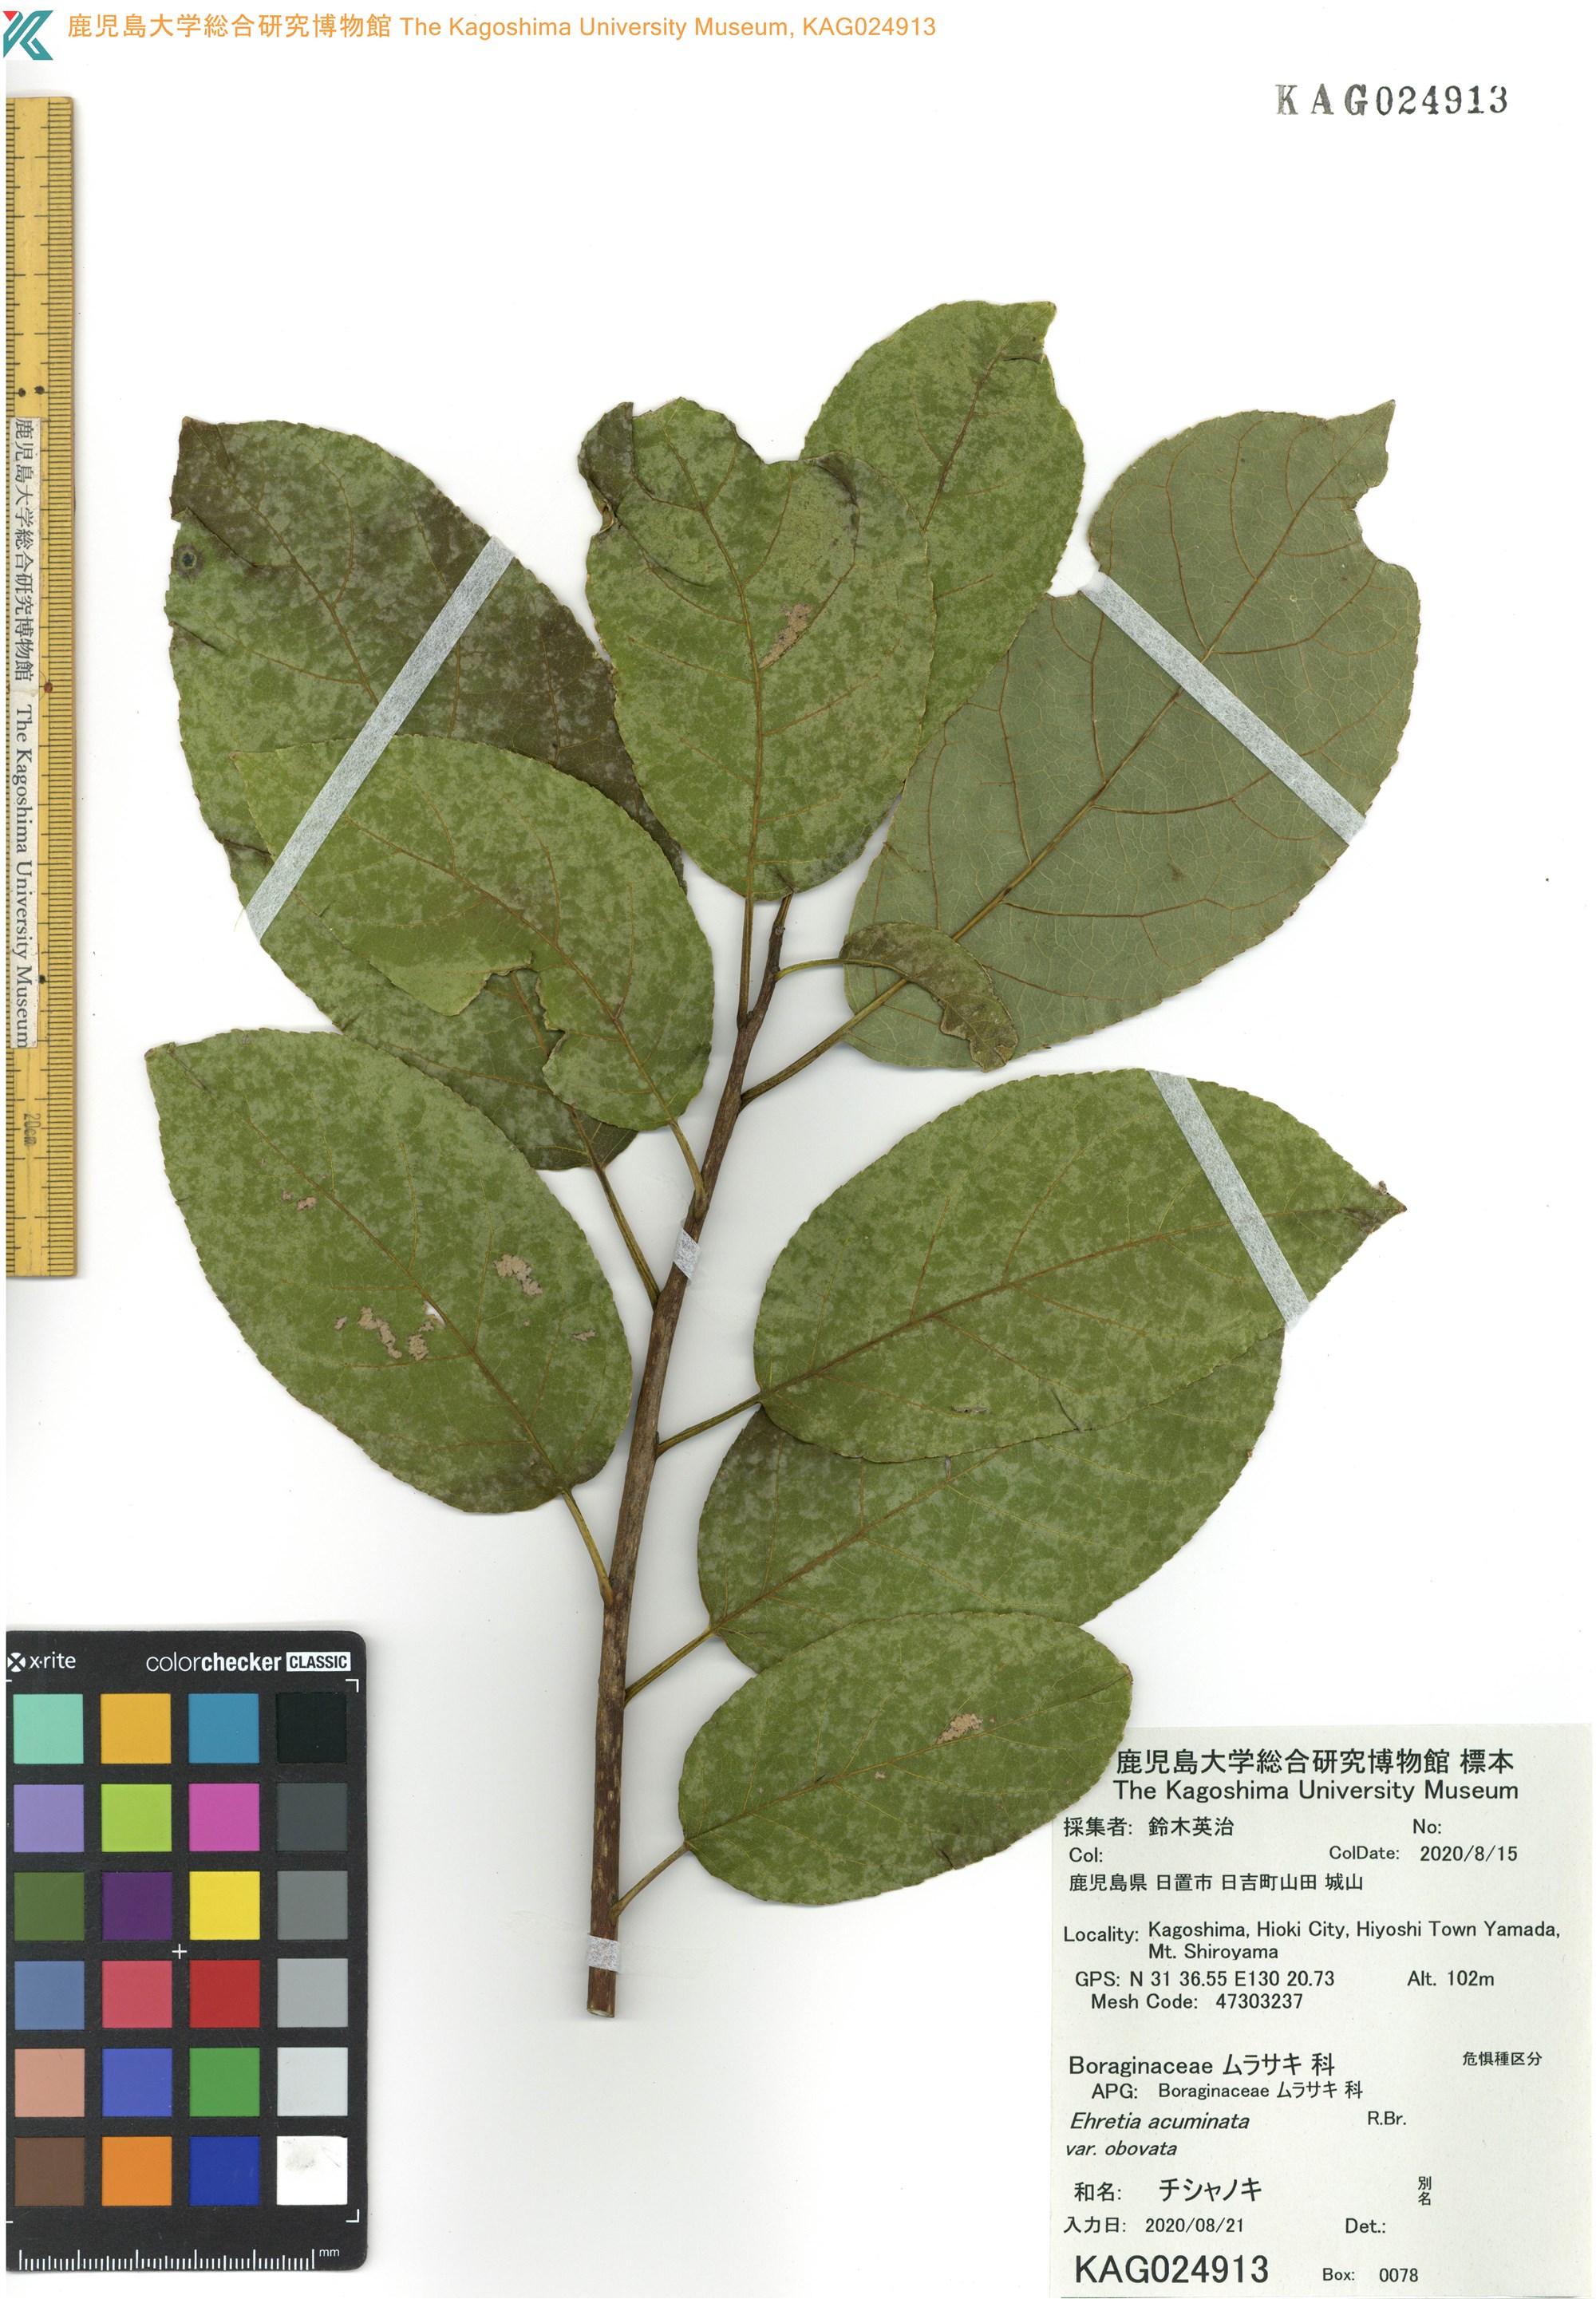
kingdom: Plantae
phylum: Tracheophyta
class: Magnoliopsida
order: Boraginales
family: Ehretiaceae
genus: Ehretia
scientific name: Ehretia acuminata
